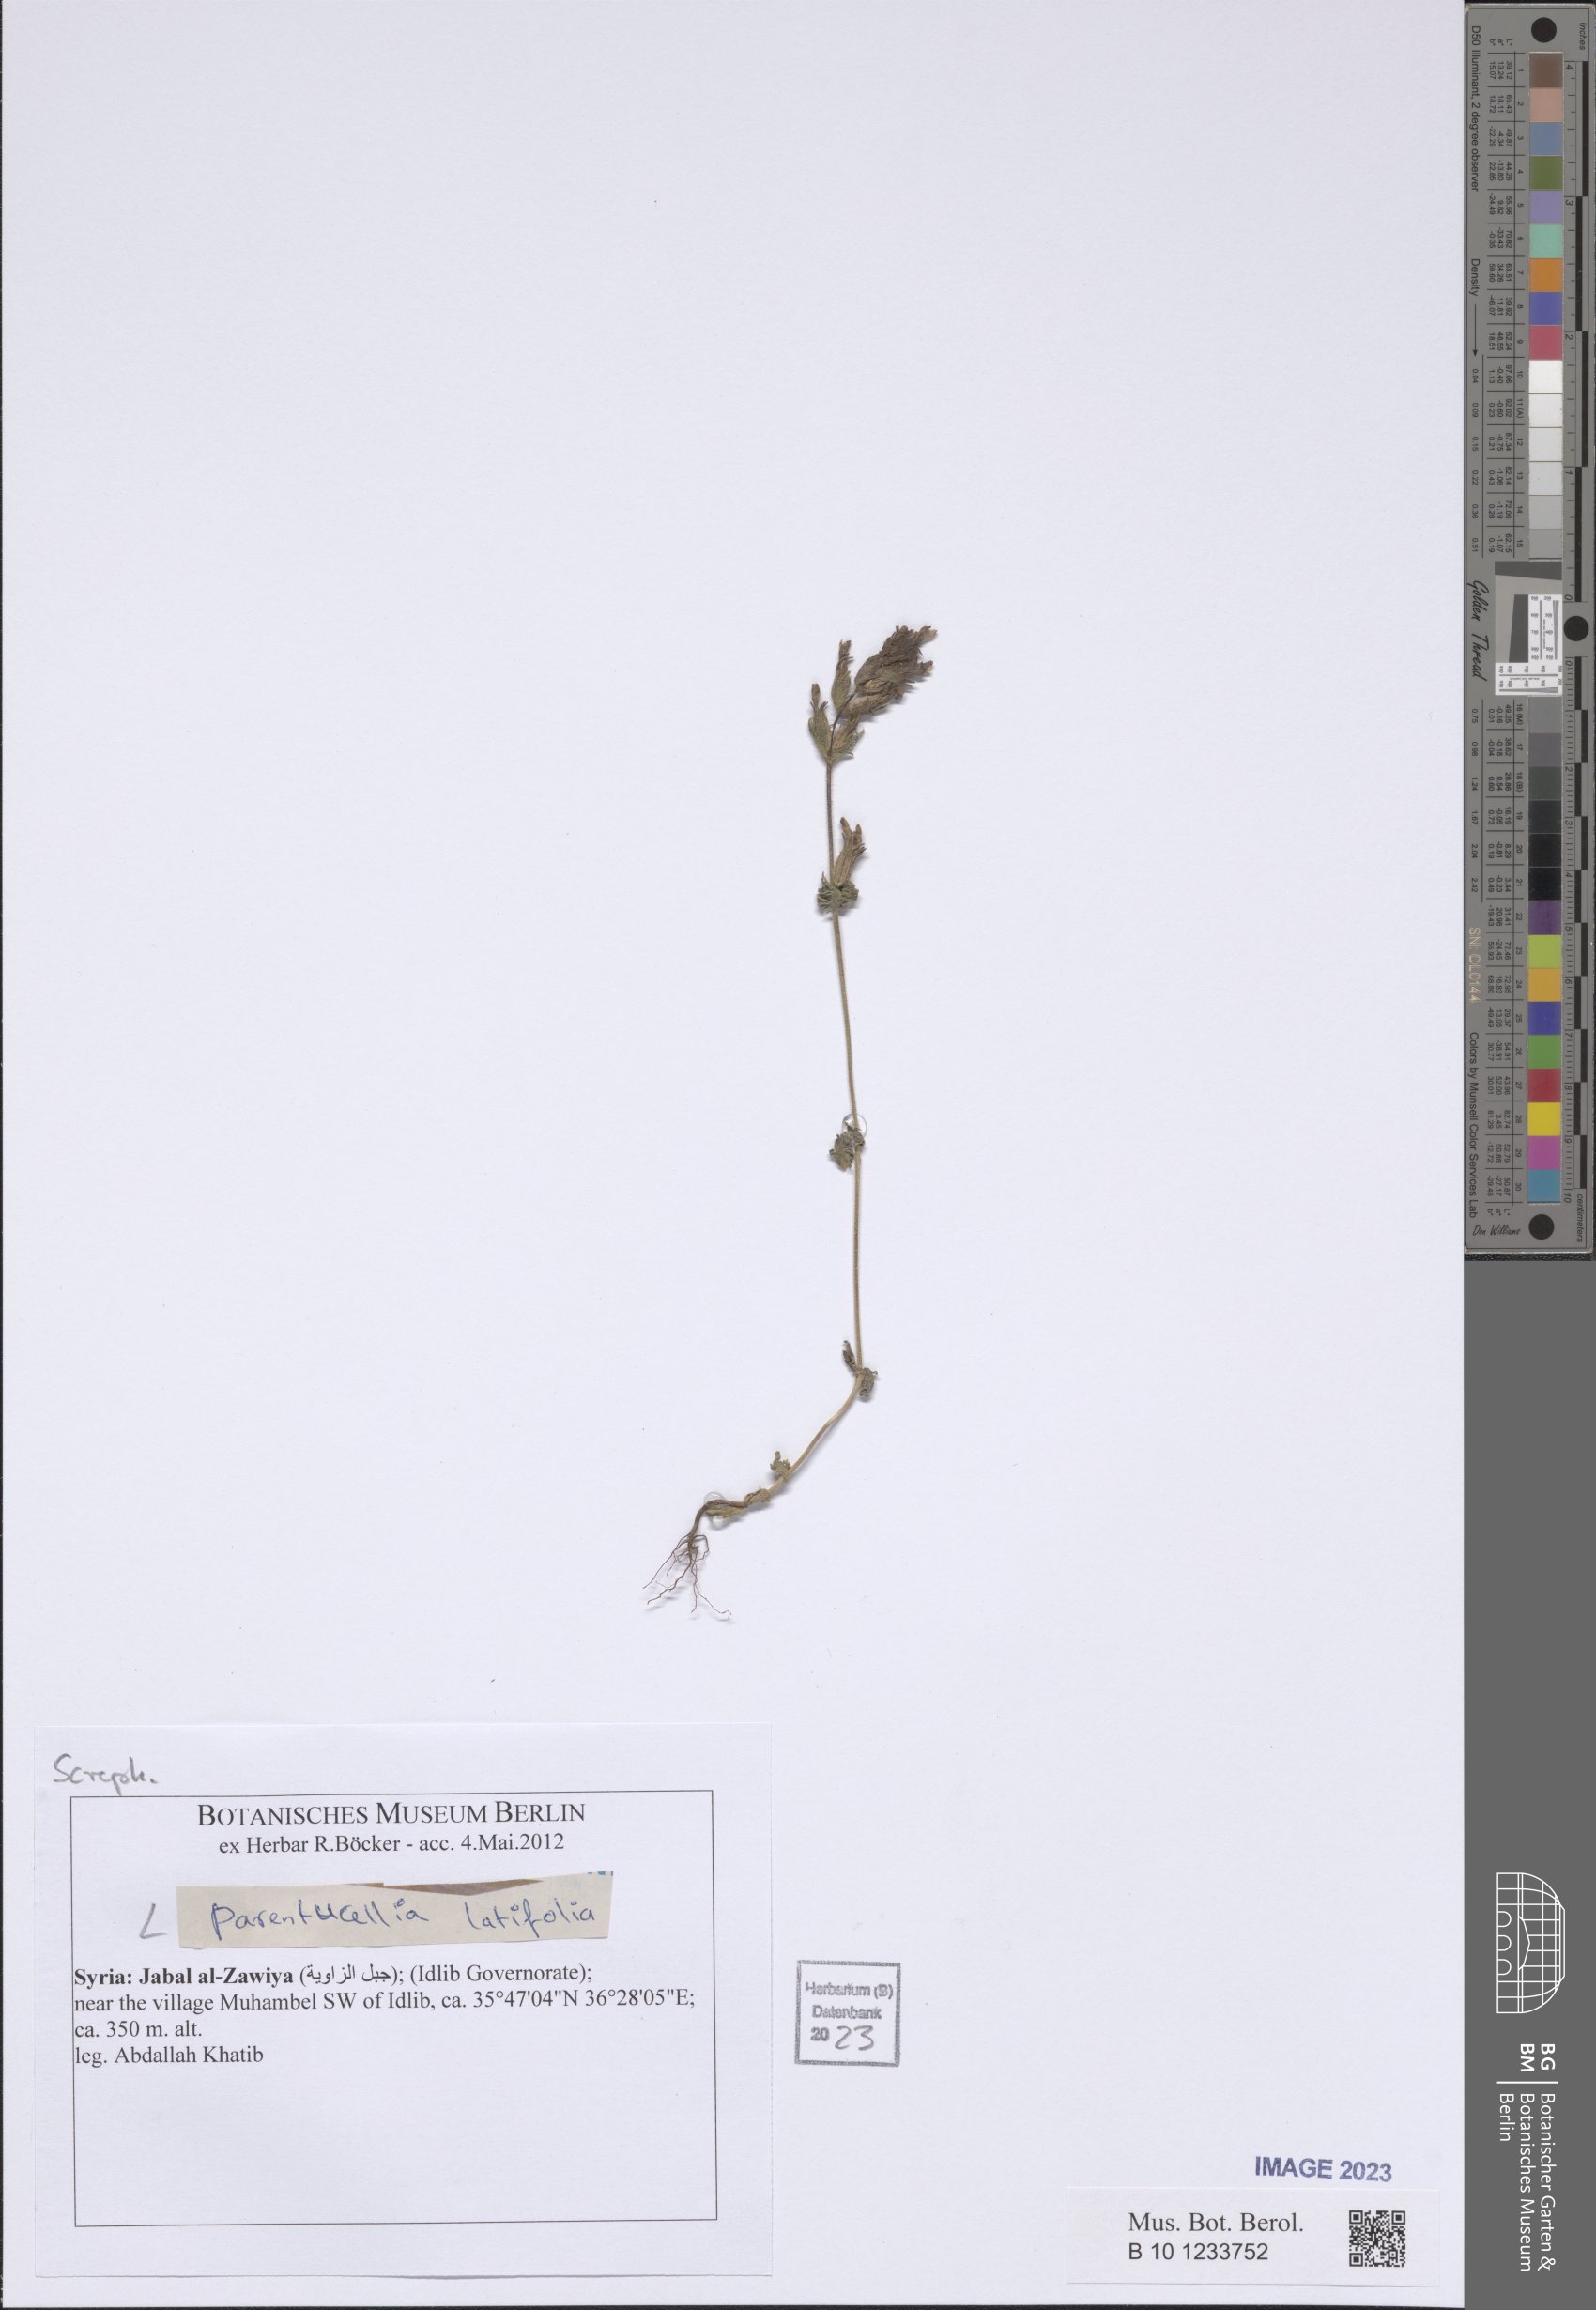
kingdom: Plantae
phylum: Tracheophyta
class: Magnoliopsida
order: Lamiales
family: Orobanchaceae
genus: Parentucellia
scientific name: Parentucellia latifolia
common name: Broadleaf glandweed
